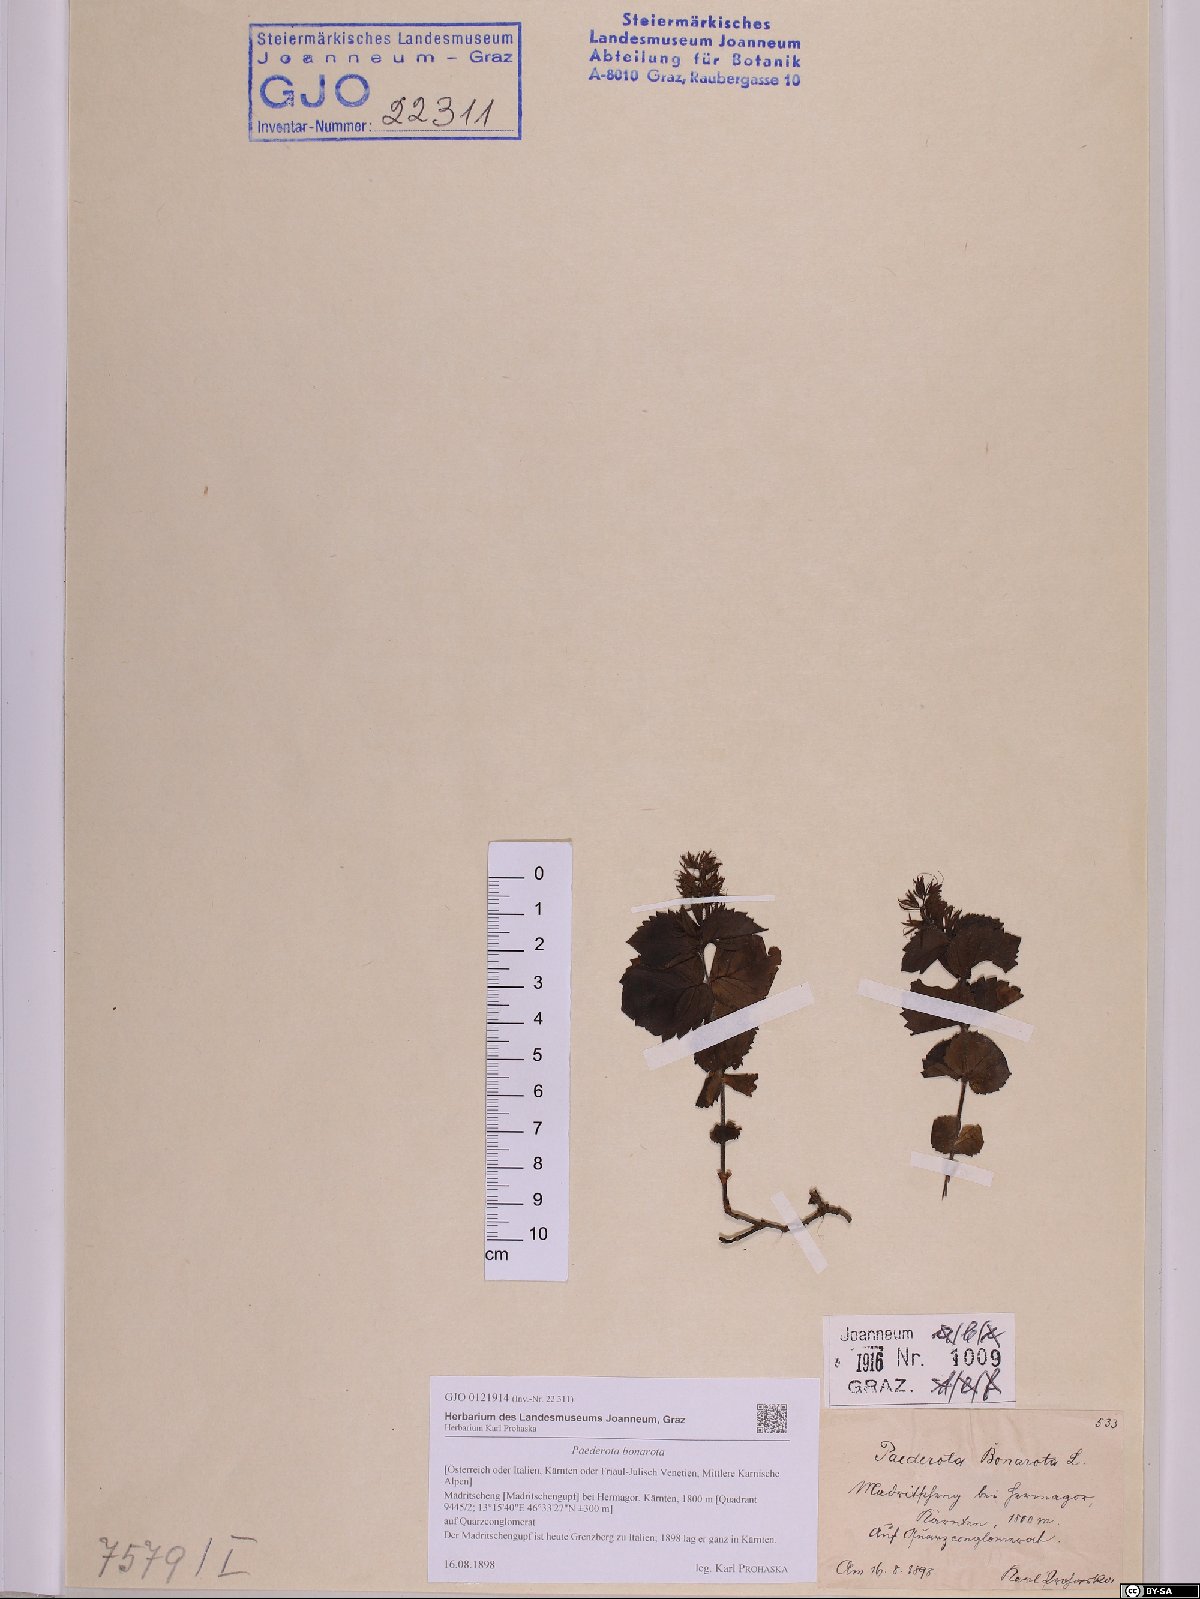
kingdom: Plantae
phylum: Tracheophyta
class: Magnoliopsida
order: Lamiales
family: Plantaginaceae
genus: Paederota
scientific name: Paederota bonarota
